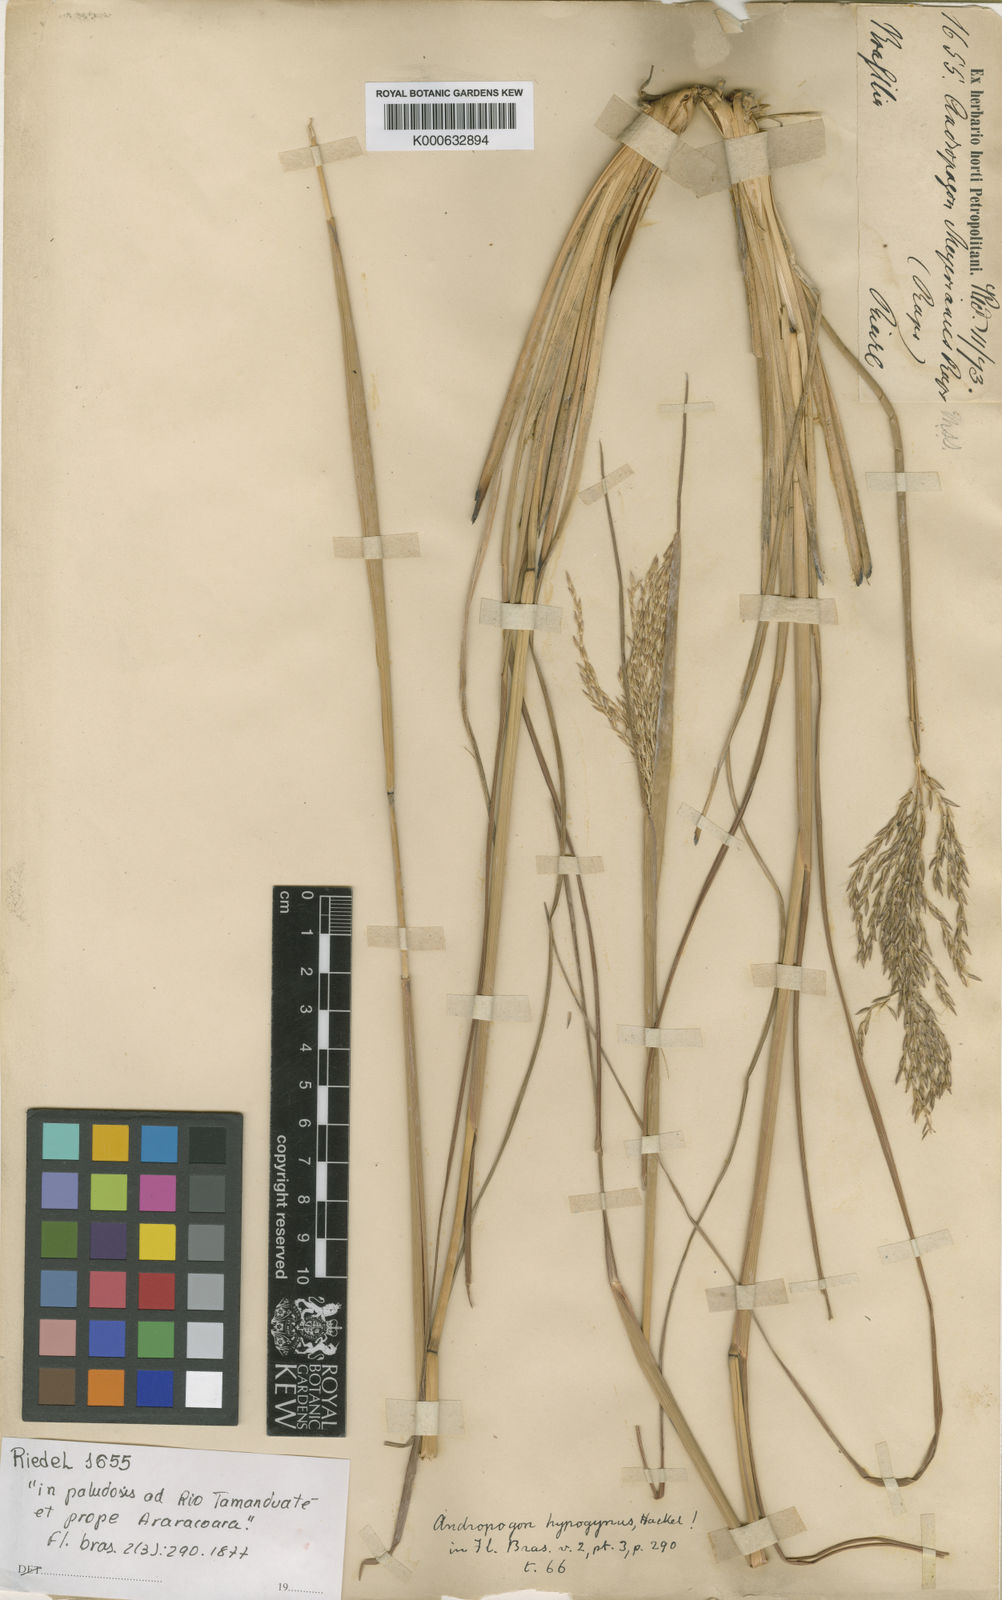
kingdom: Plantae
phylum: Tracheophyta
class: Liliopsida
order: Poales
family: Poaceae
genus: Andropogon
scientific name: Andropogon hypogynus
